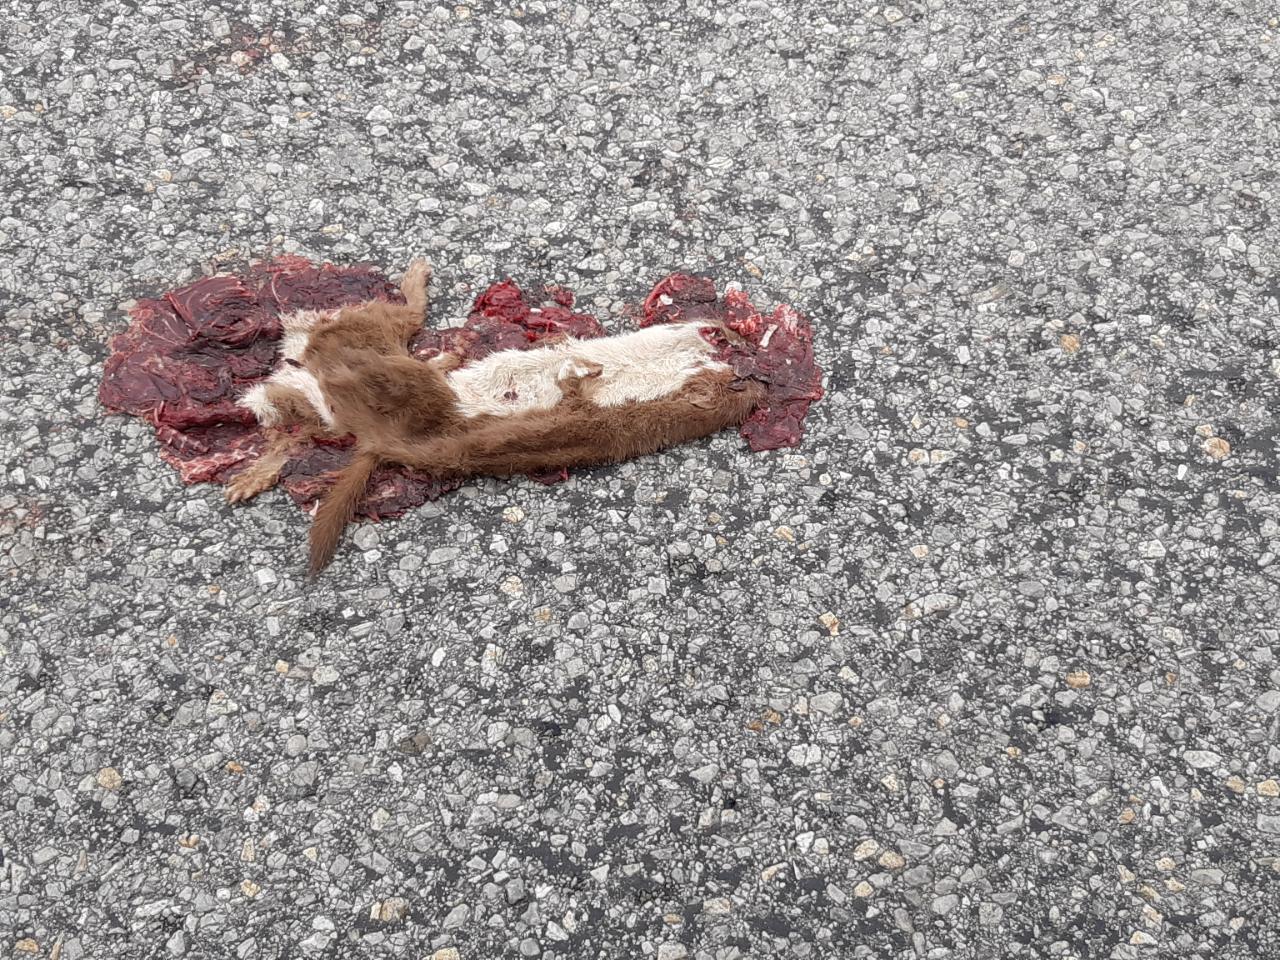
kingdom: Animalia
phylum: Chordata
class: Mammalia
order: Carnivora
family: Mustelidae
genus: Mustela
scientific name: Mustela nivalis
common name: Least weasel
